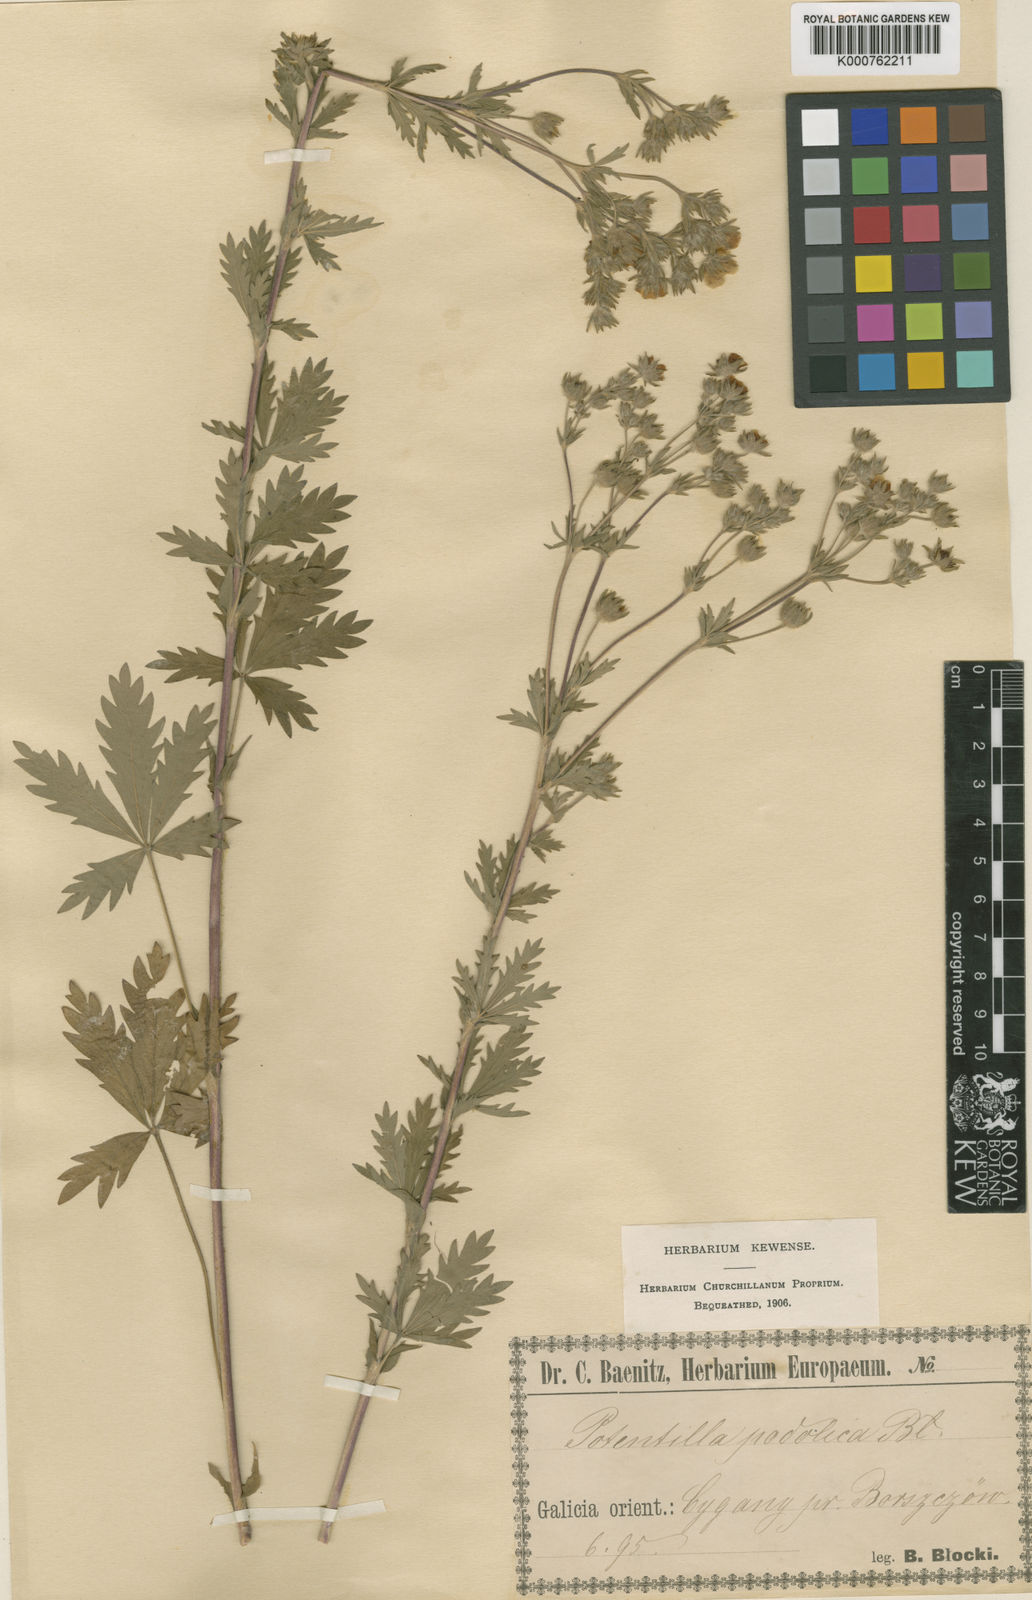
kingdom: Plantae
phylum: Tracheophyta
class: Magnoliopsida
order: Rosales
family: Rosaceae
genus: Potentilla
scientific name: Potentilla inclinata
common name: Grey cinquefoil
